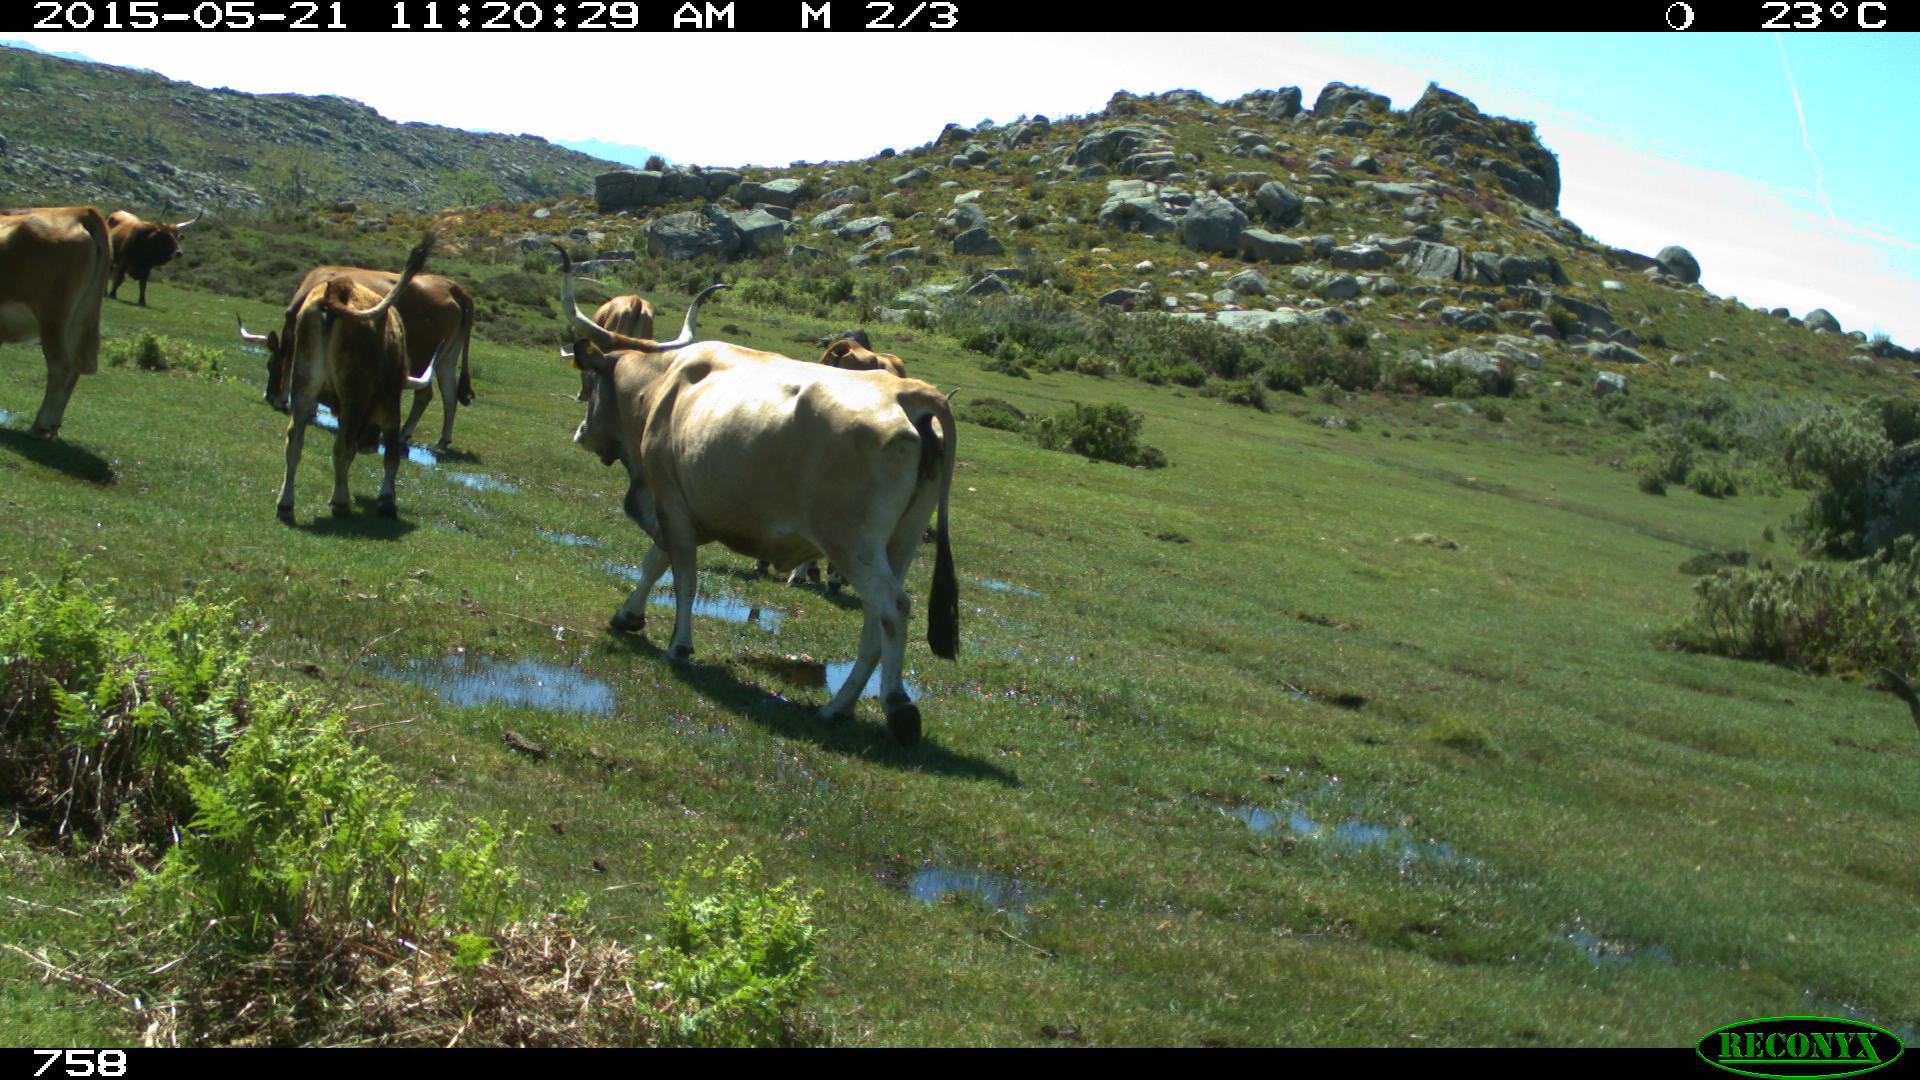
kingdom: Animalia
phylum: Chordata
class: Mammalia
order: Artiodactyla
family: Bovidae
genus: Bos
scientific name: Bos taurus
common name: Domesticated cattle
